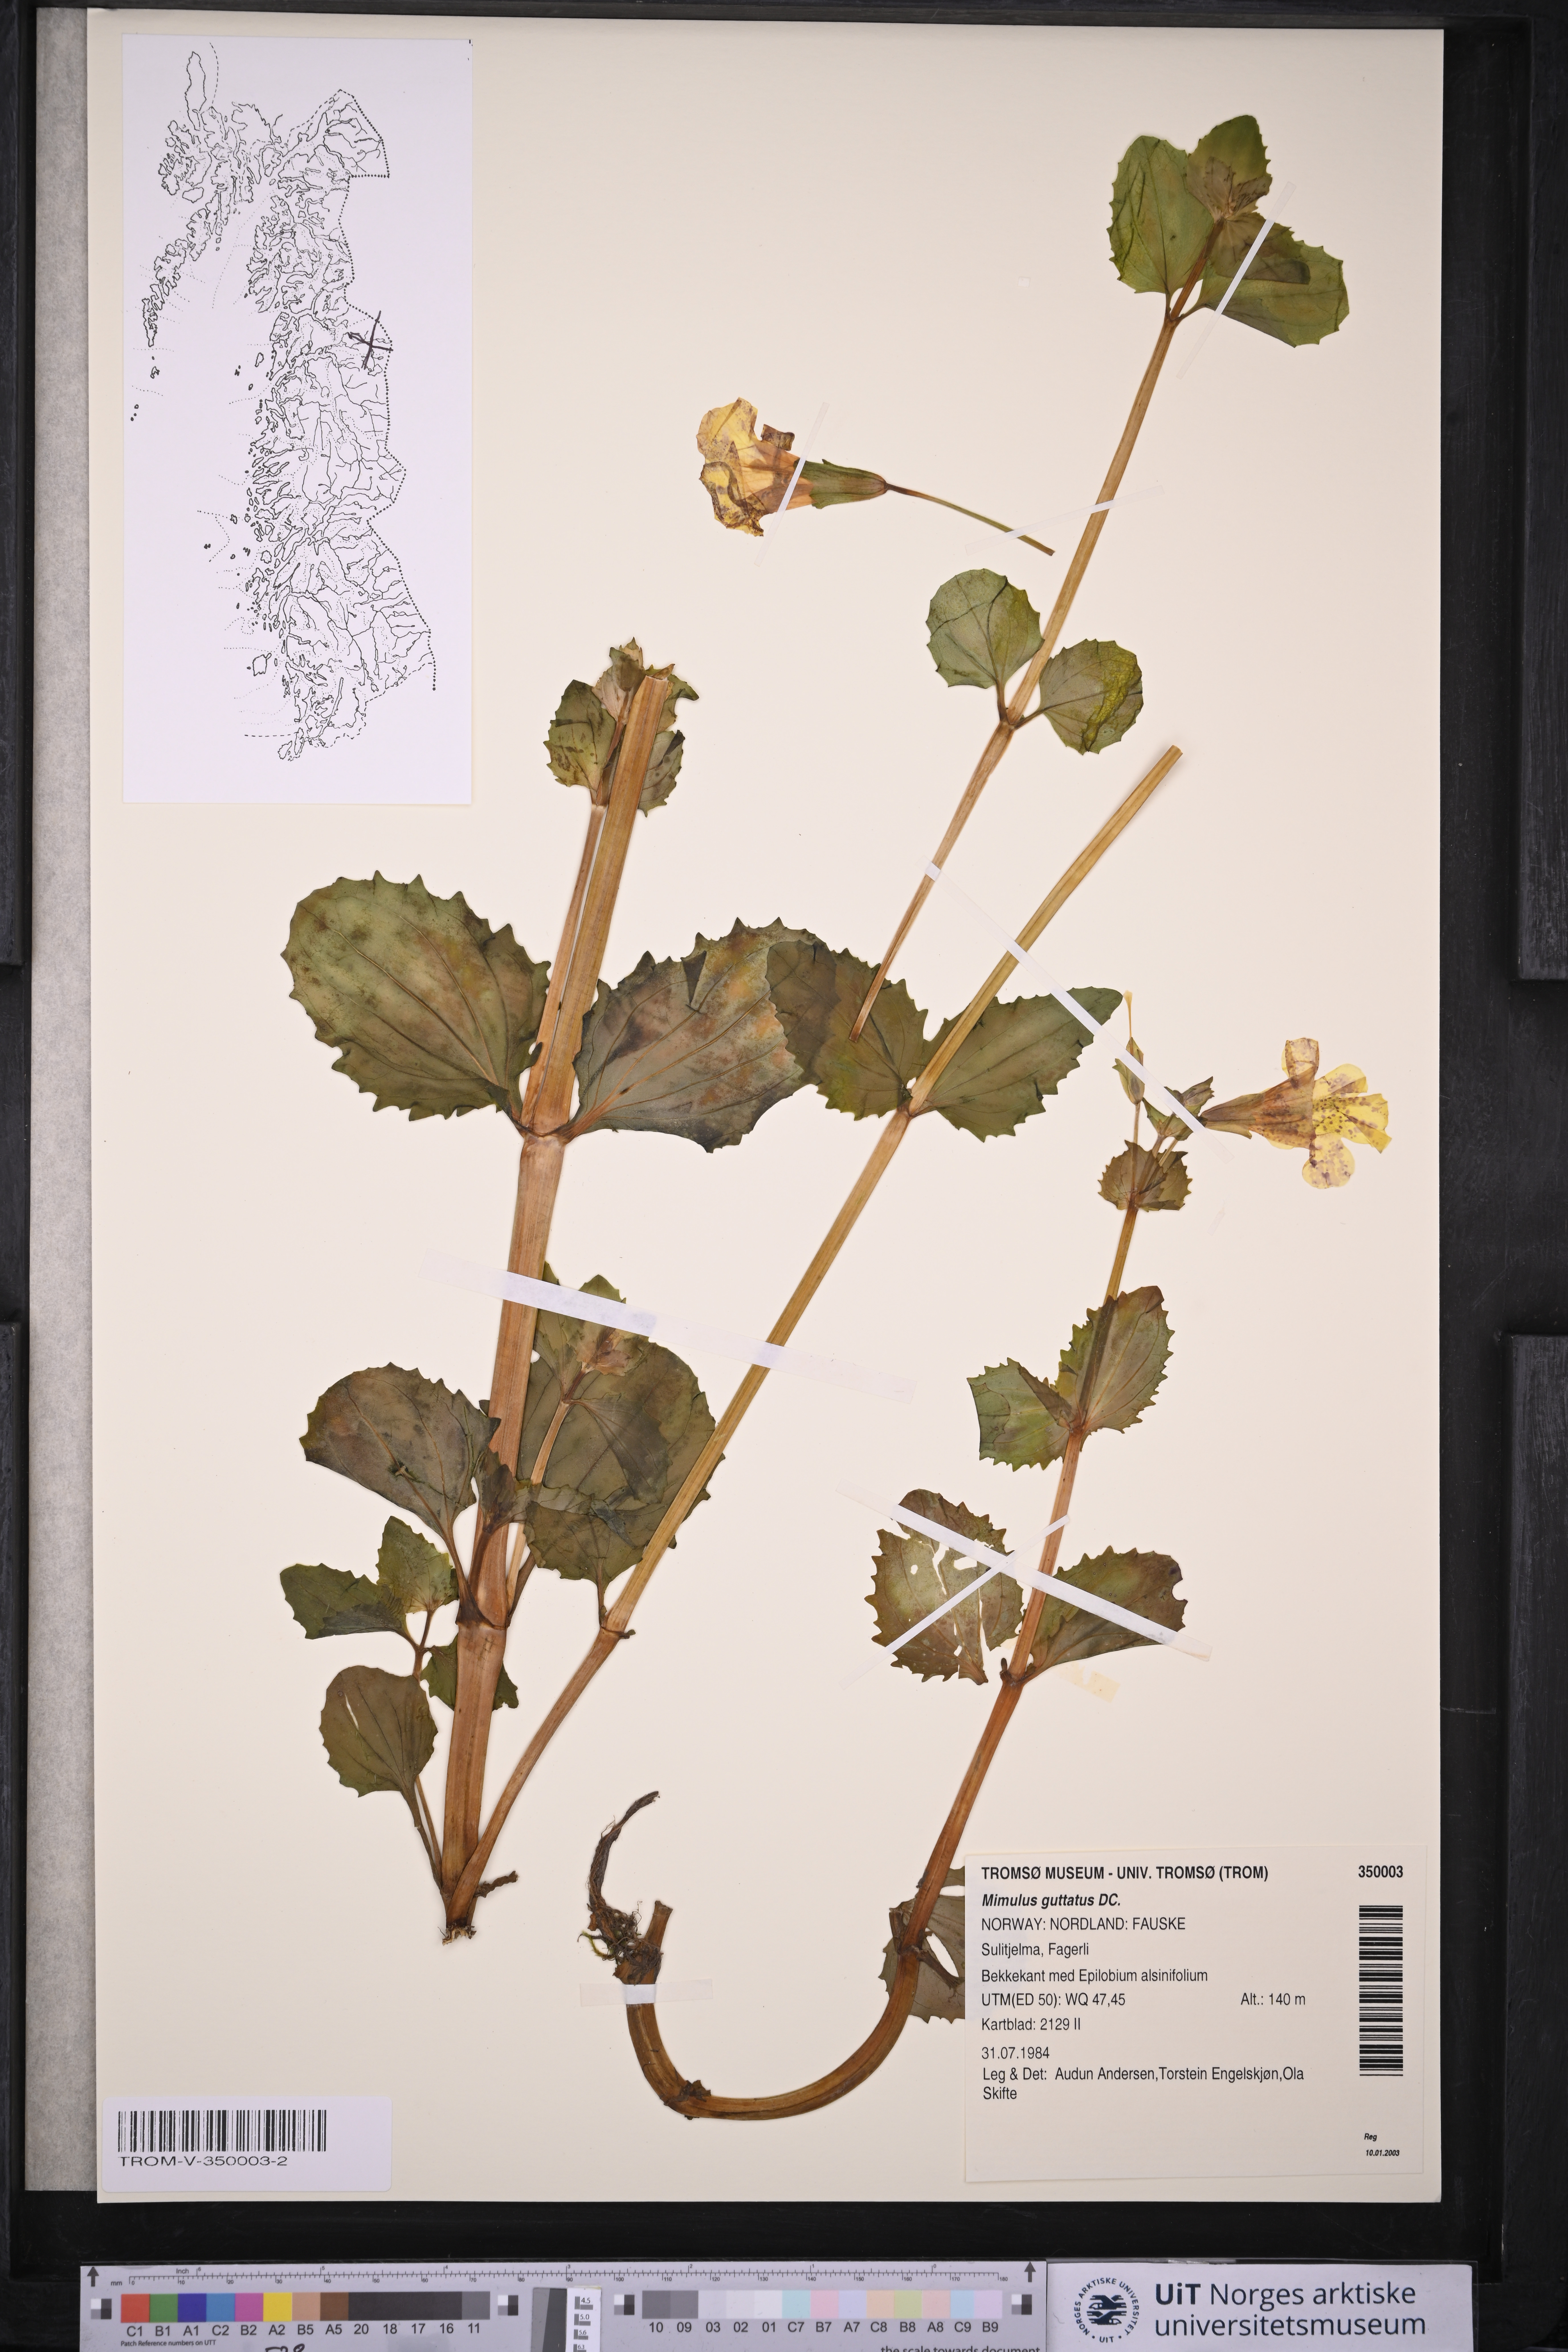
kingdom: Plantae
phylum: Tracheophyta
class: Magnoliopsida
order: Lamiales
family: Phrymaceae
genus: Erythranthe
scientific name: Erythranthe guttata
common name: Monkeyflower
